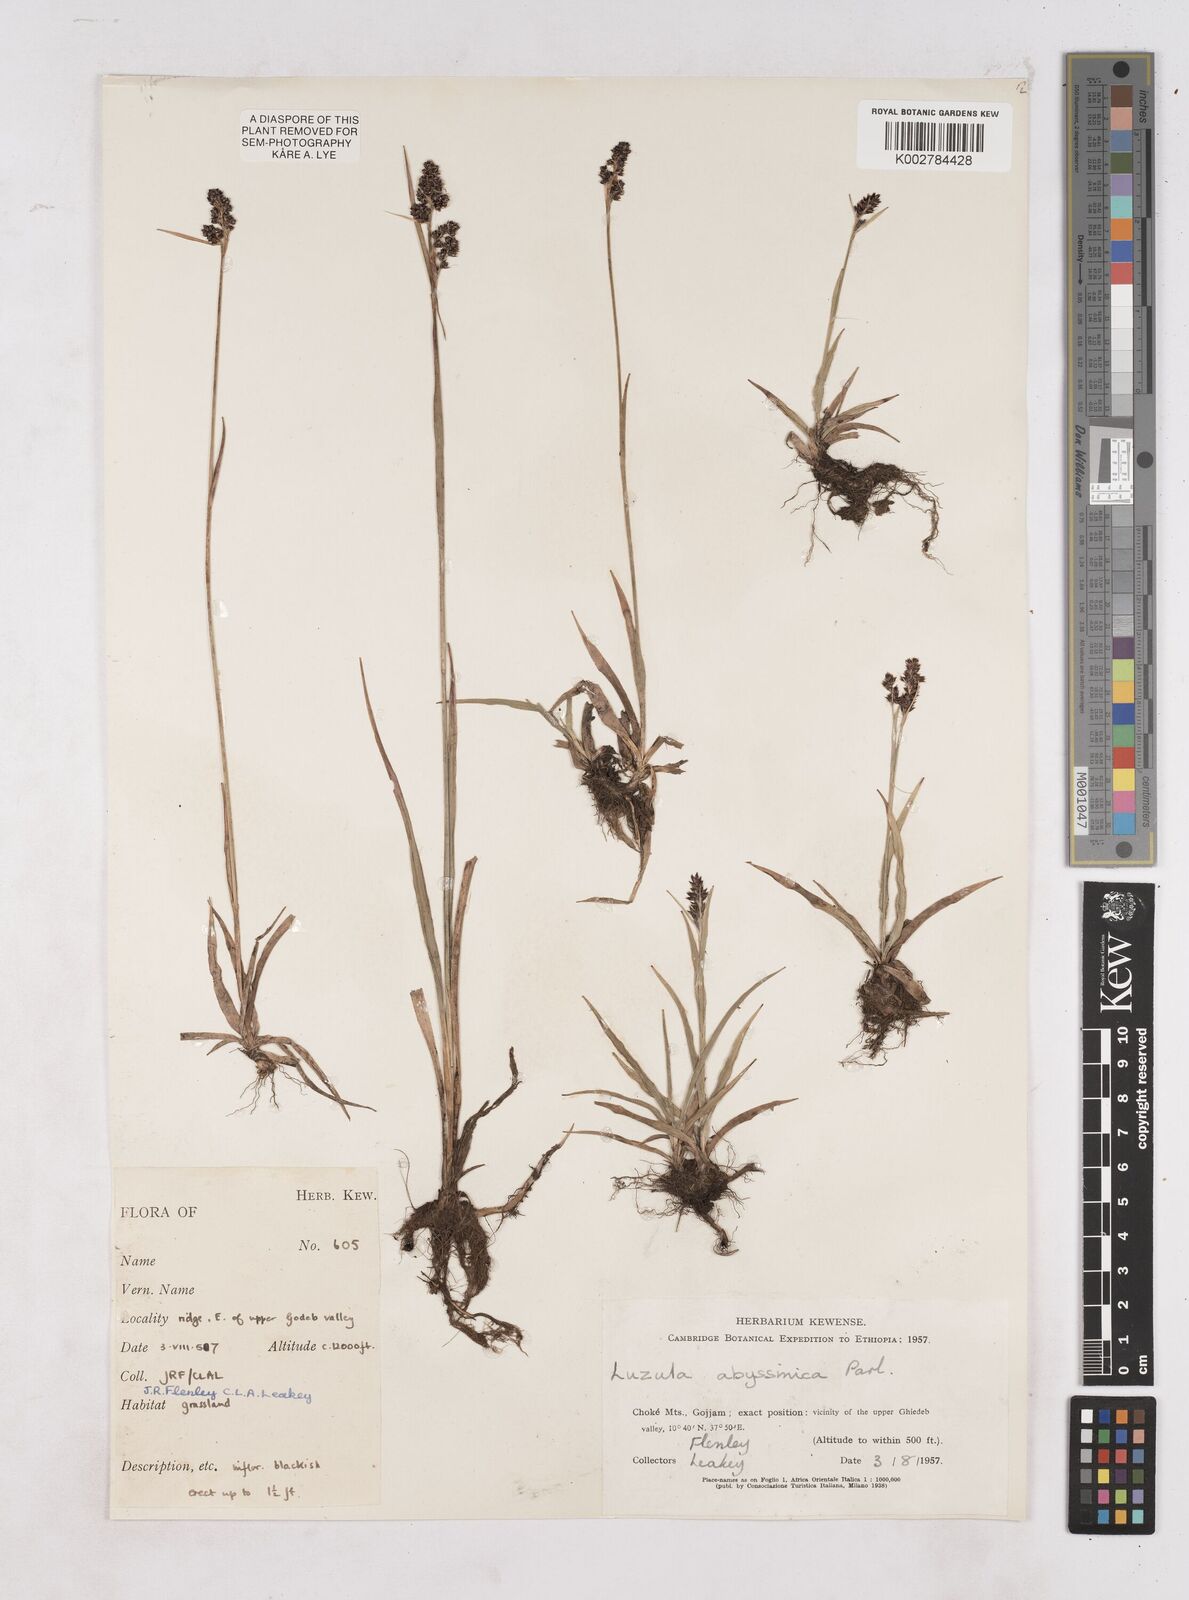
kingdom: Plantae
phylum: Tracheophyta
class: Liliopsida
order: Poales
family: Juncaceae
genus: Luzula
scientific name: Luzula abyssinica
